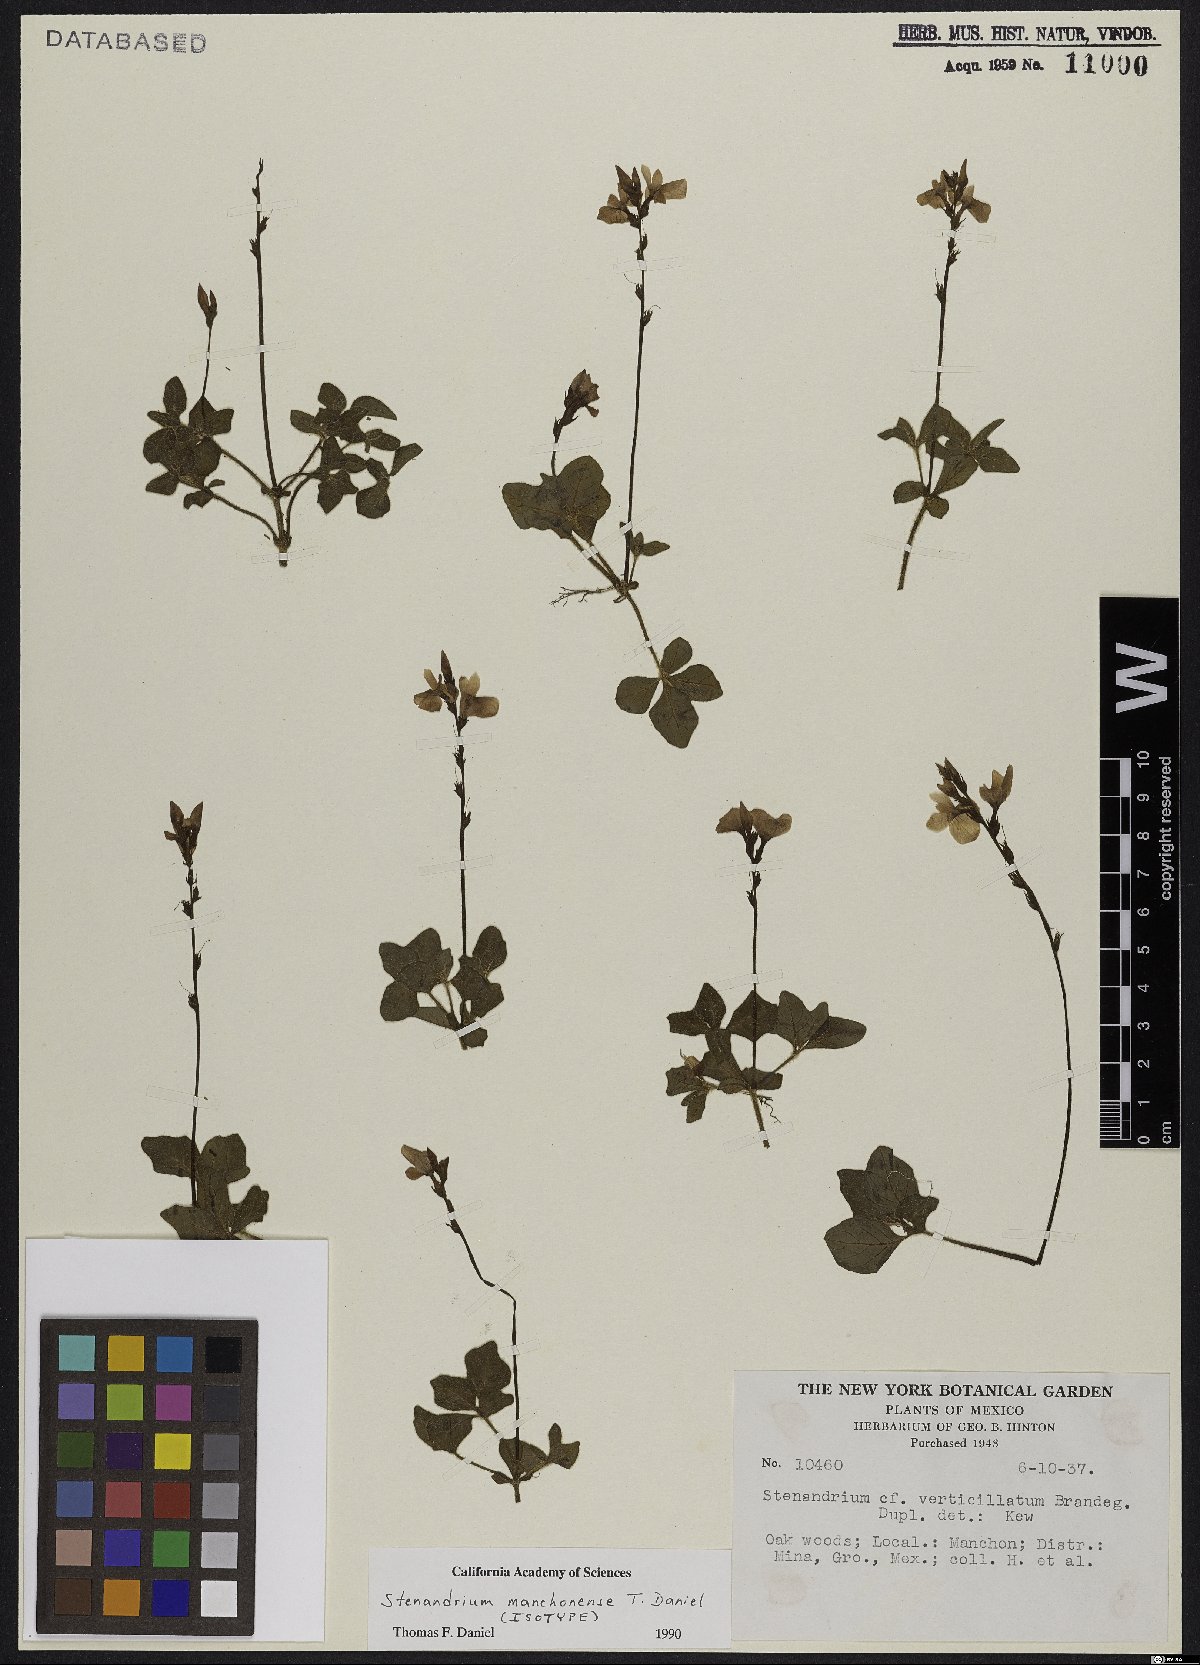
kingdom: Plantae
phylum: Tracheophyta
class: Magnoliopsida
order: Lamiales
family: Acanthaceae
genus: Stenandrium
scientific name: Stenandrium manchonense
